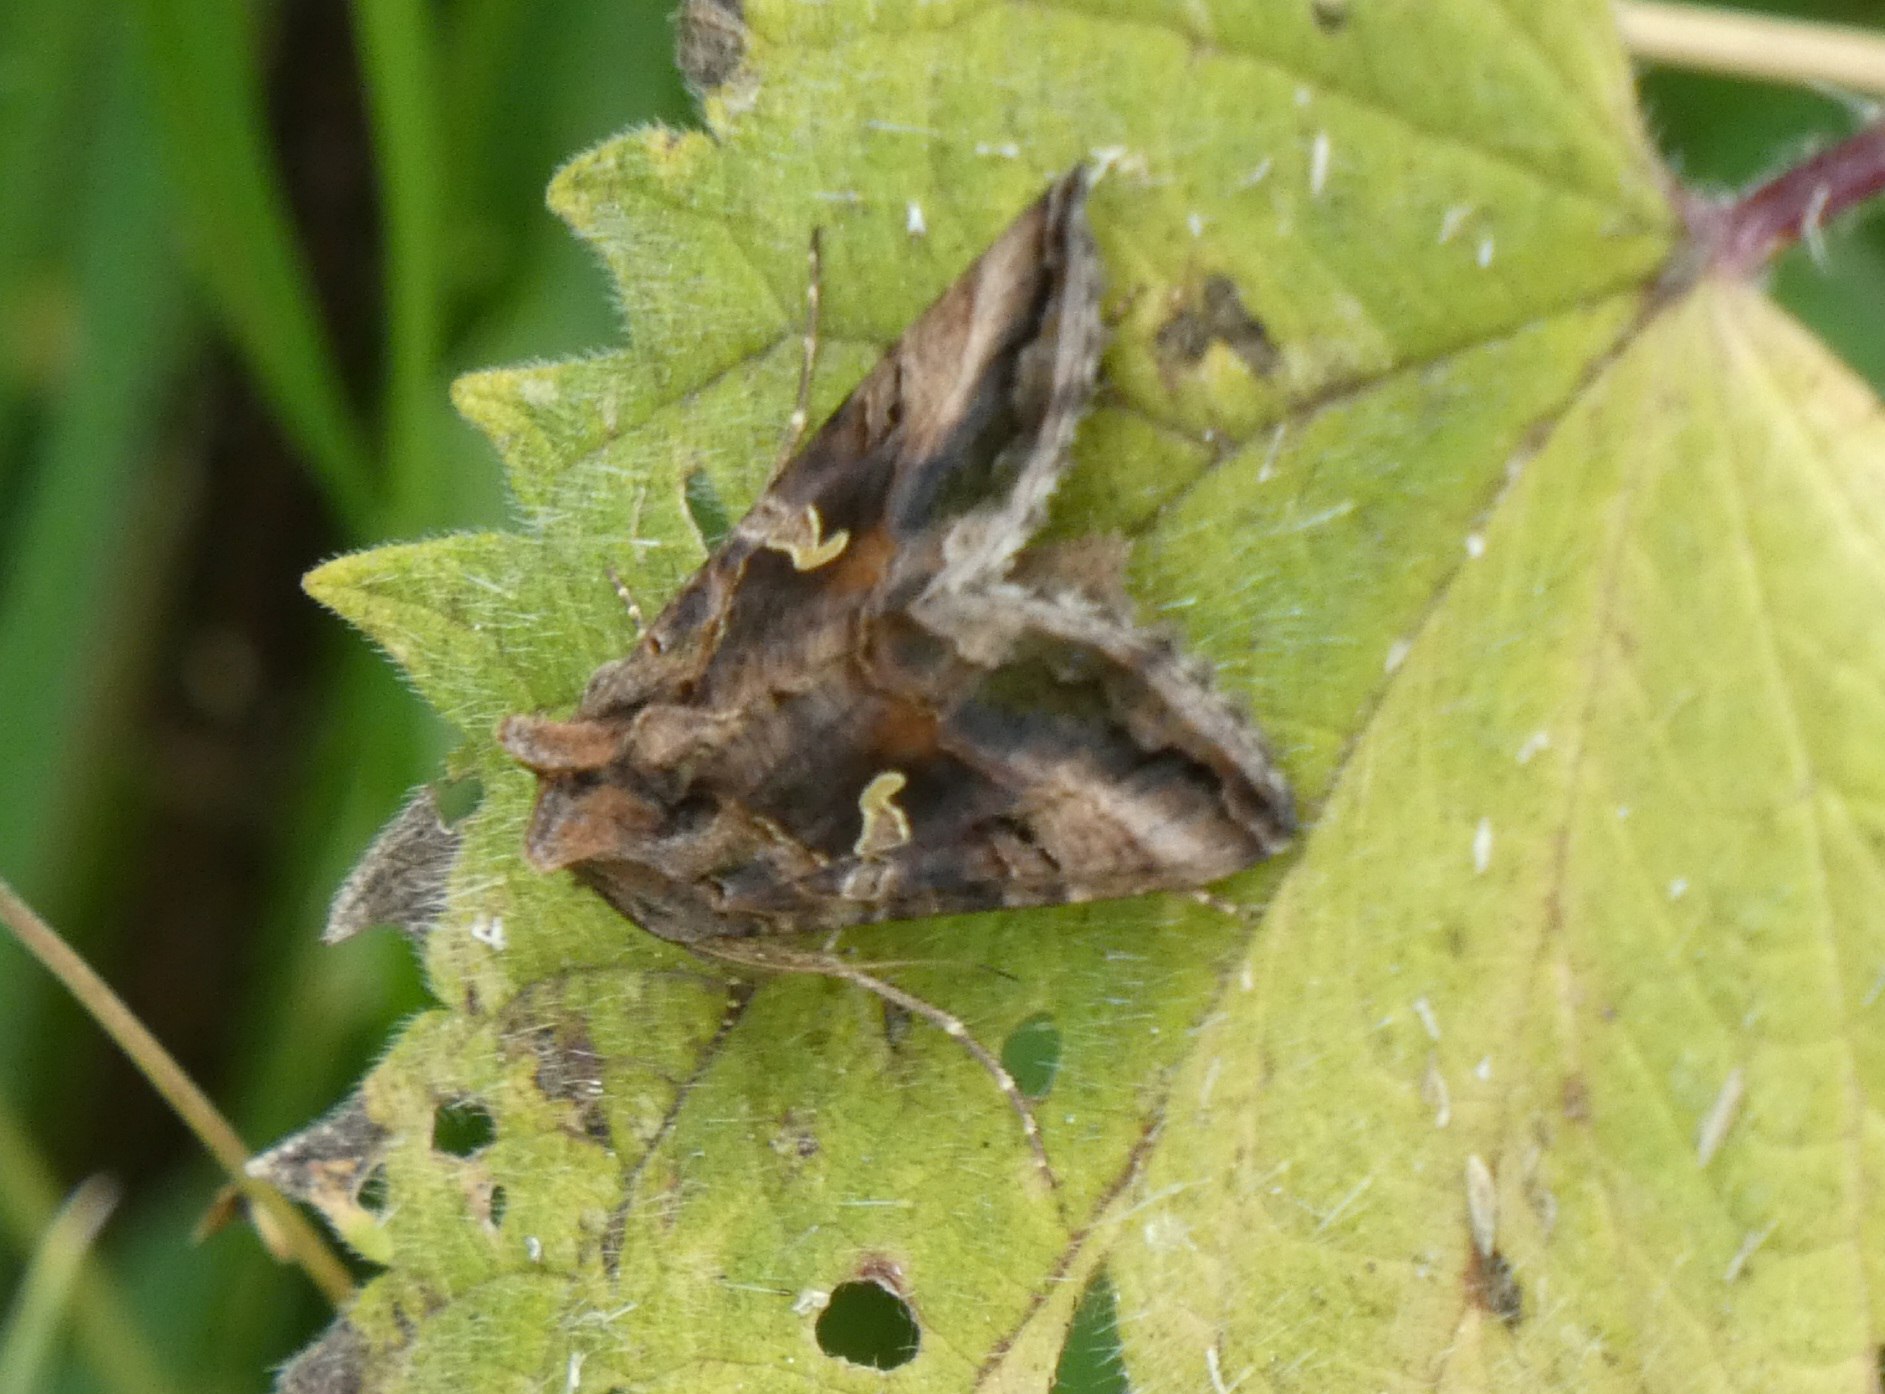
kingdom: Animalia
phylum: Arthropoda
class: Insecta
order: Lepidoptera
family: Noctuidae
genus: Autographa
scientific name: Autographa gamma
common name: Gammaugle
